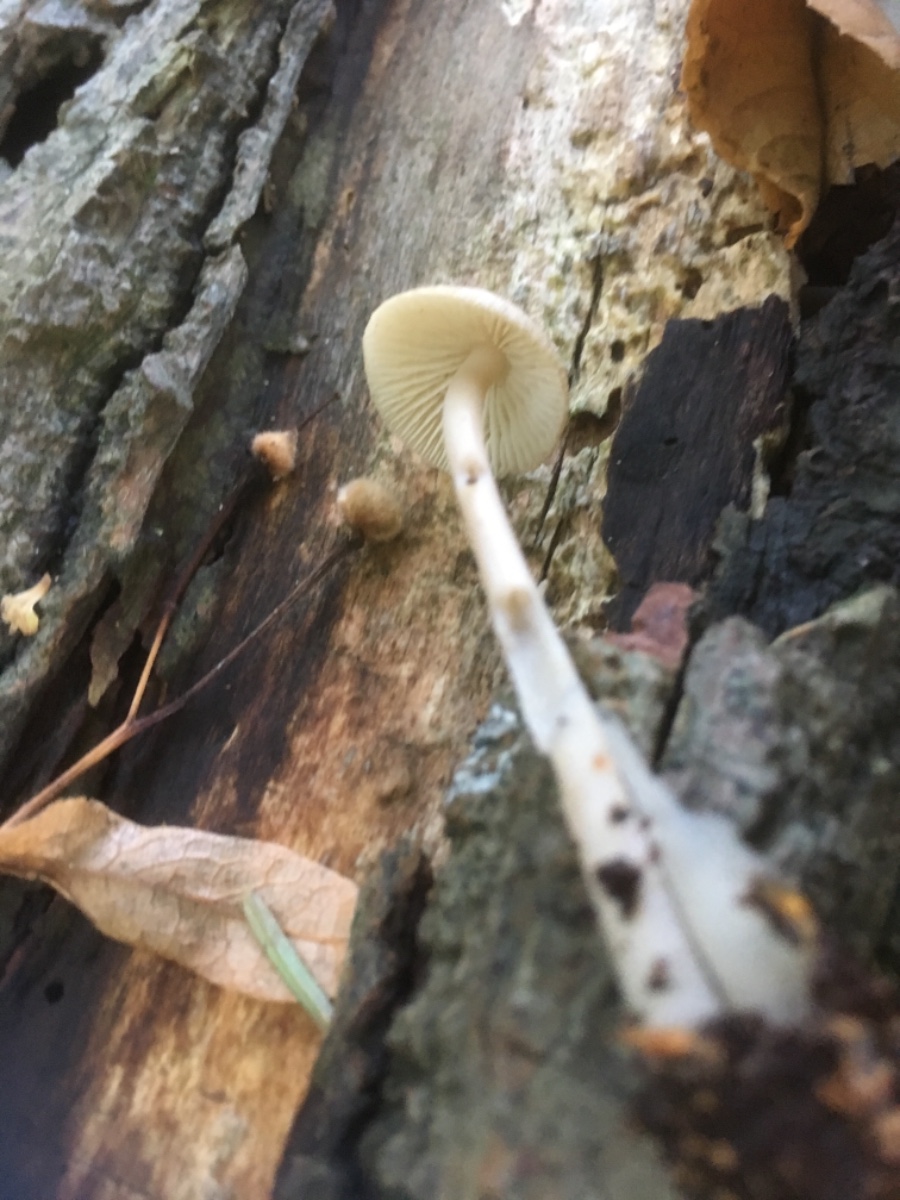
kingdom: Fungi
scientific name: Fungi
